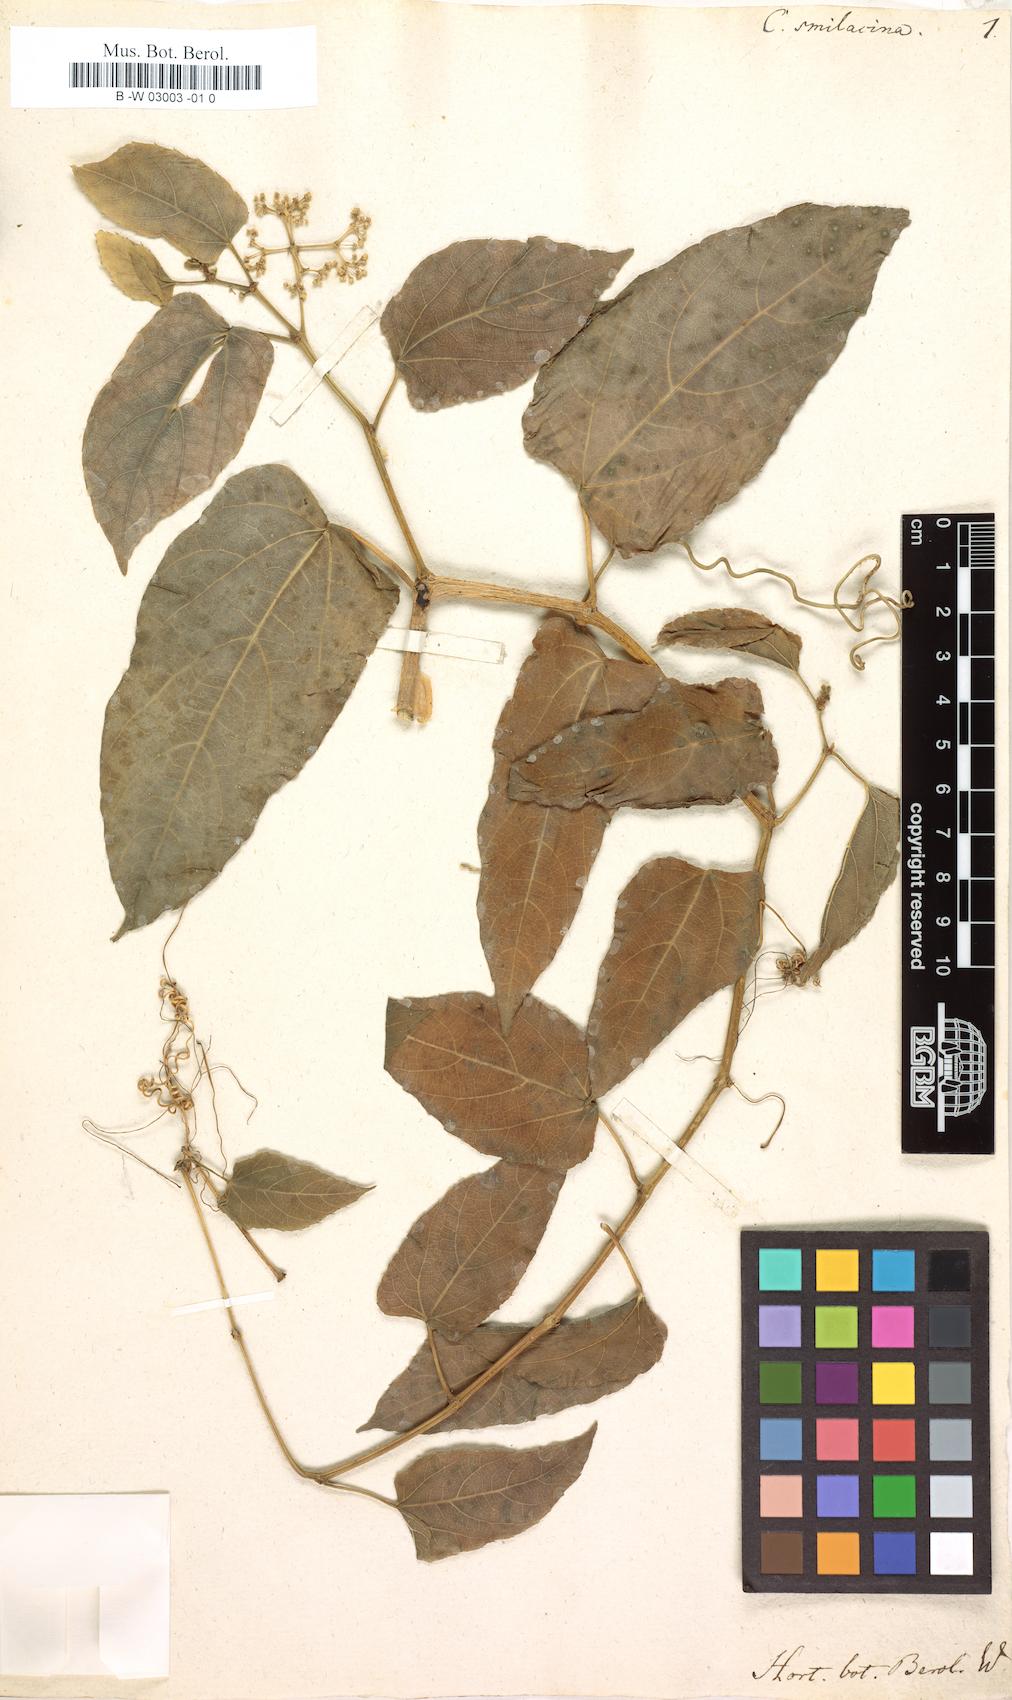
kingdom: Plantae
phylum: Tracheophyta
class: Magnoliopsida
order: Vitales
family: Vitaceae
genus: Cissus
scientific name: Cissus verticillata
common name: Princess vine
